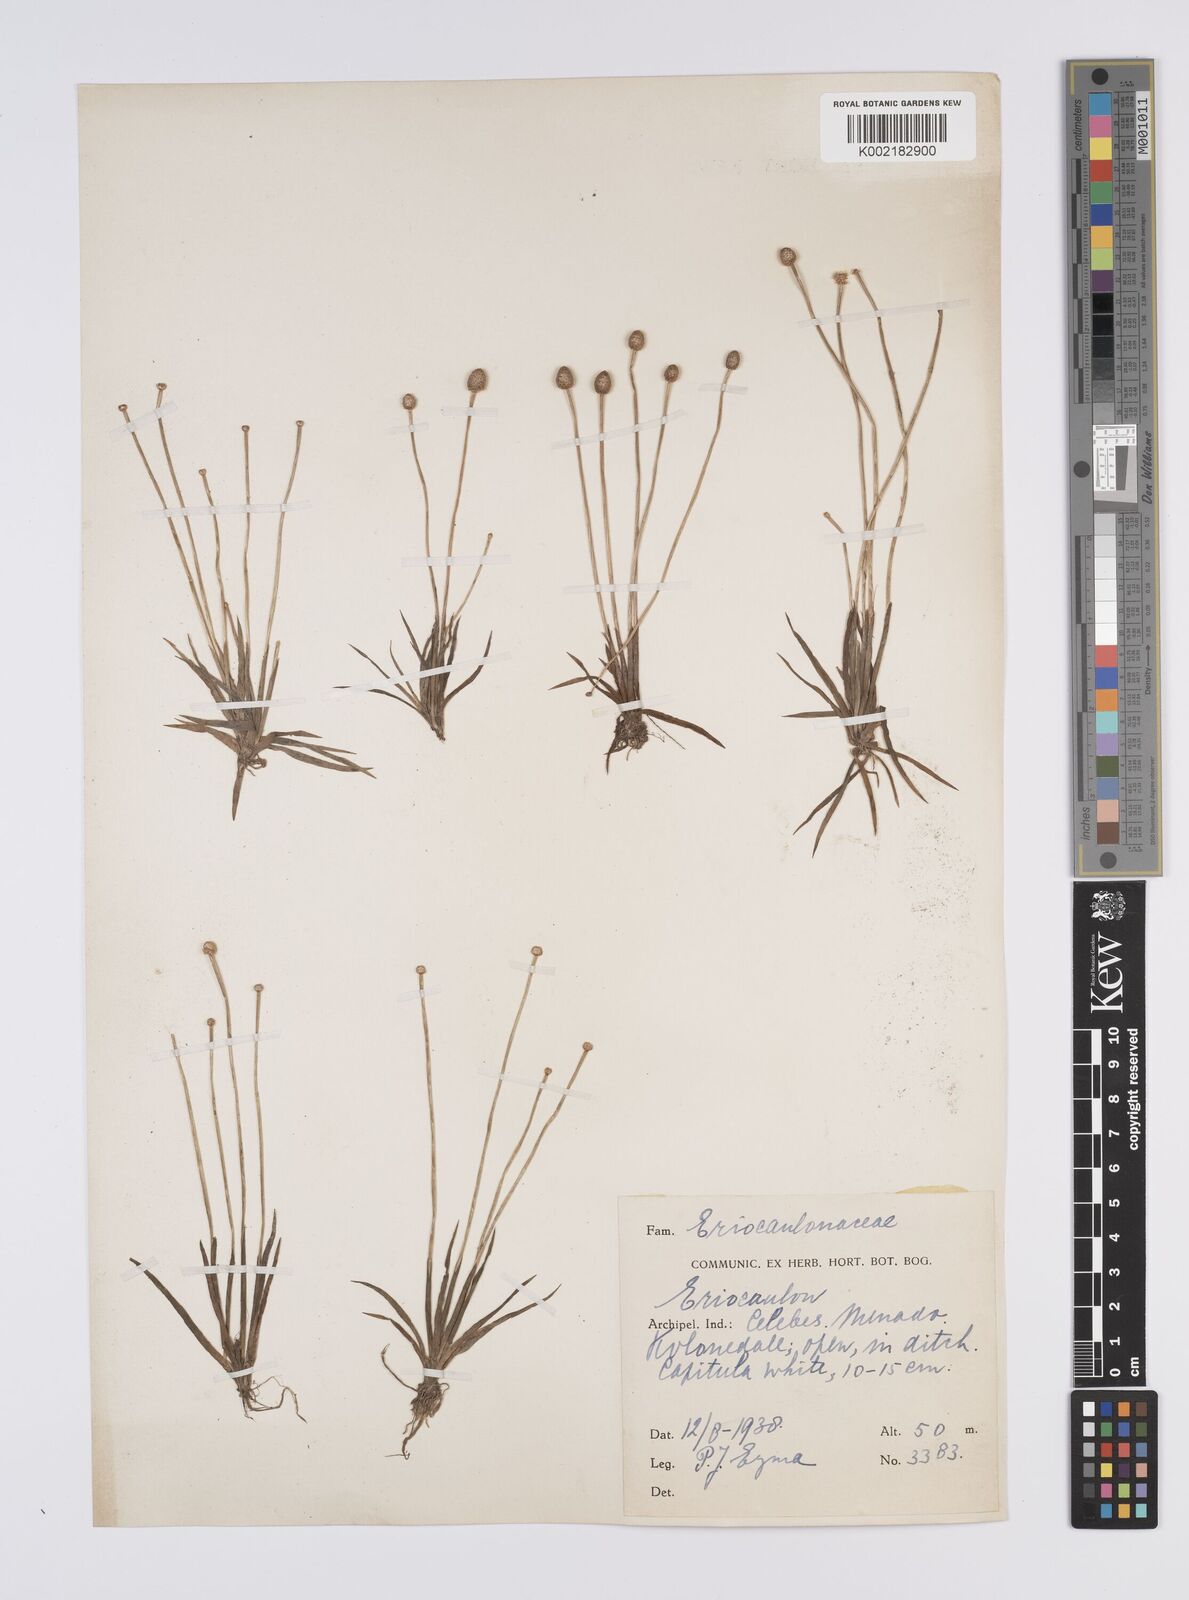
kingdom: Plantae
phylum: Tracheophyta
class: Liliopsida
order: Poales
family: Eriocaulaceae
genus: Eriocaulon
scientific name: Eriocaulon
